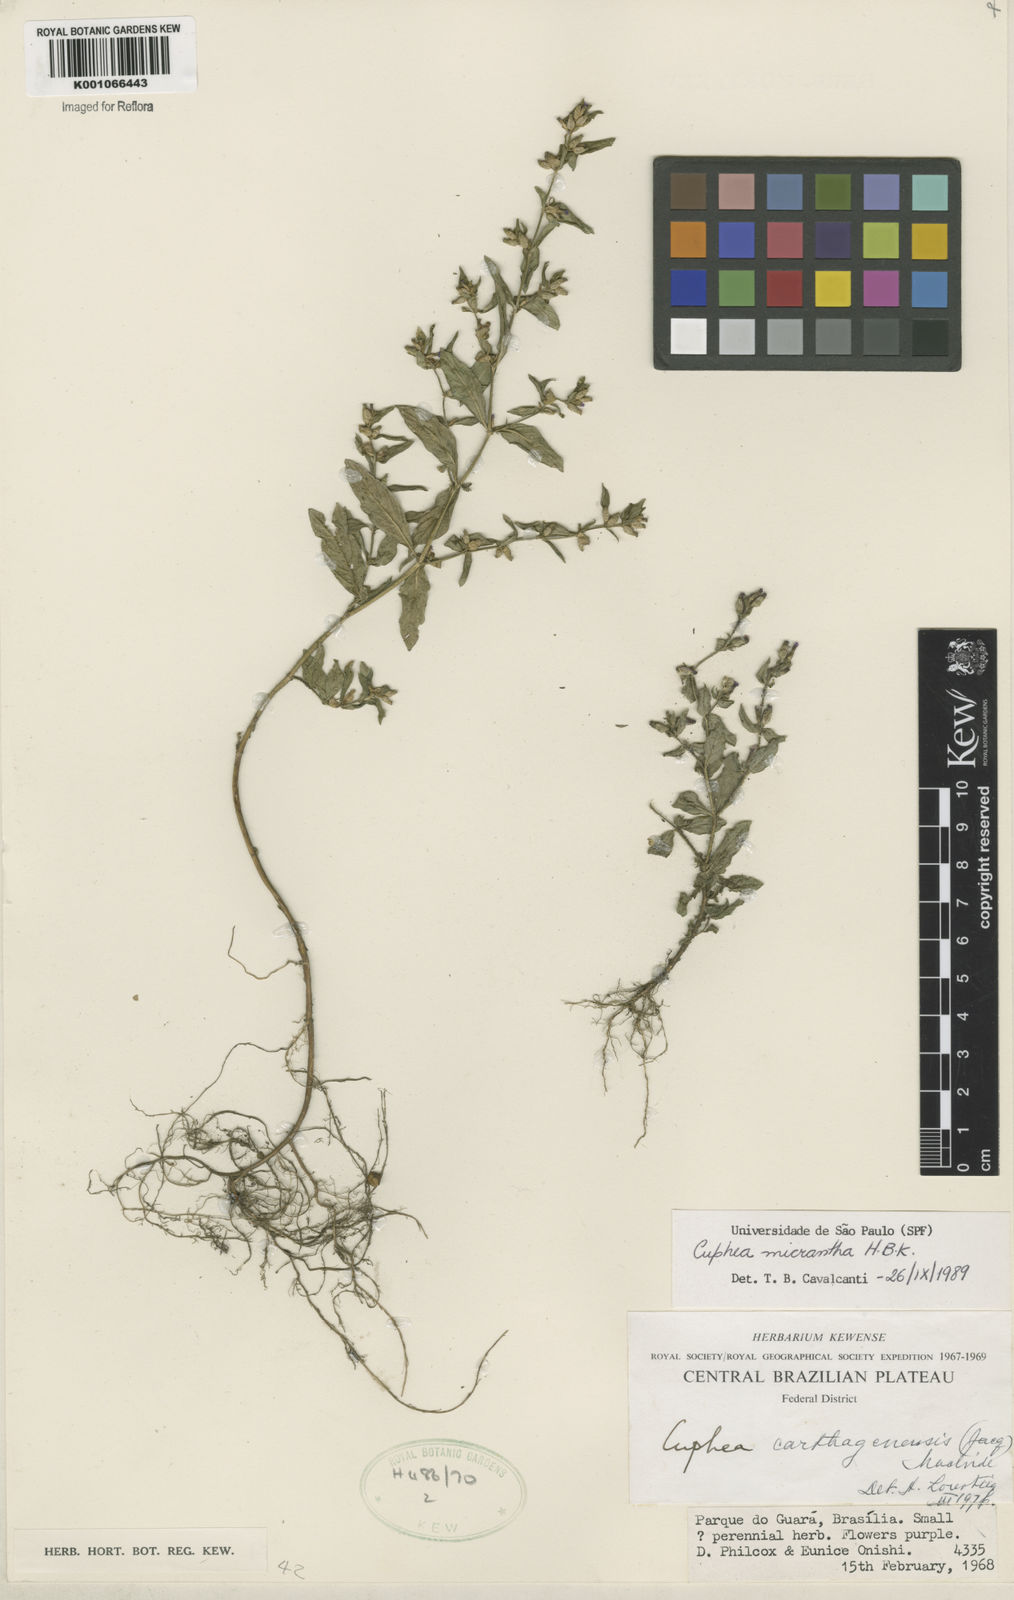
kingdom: Plantae
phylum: Tracheophyta
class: Magnoliopsida
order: Myrtales
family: Lythraceae
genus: Cuphea
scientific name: Cuphea micrantha
